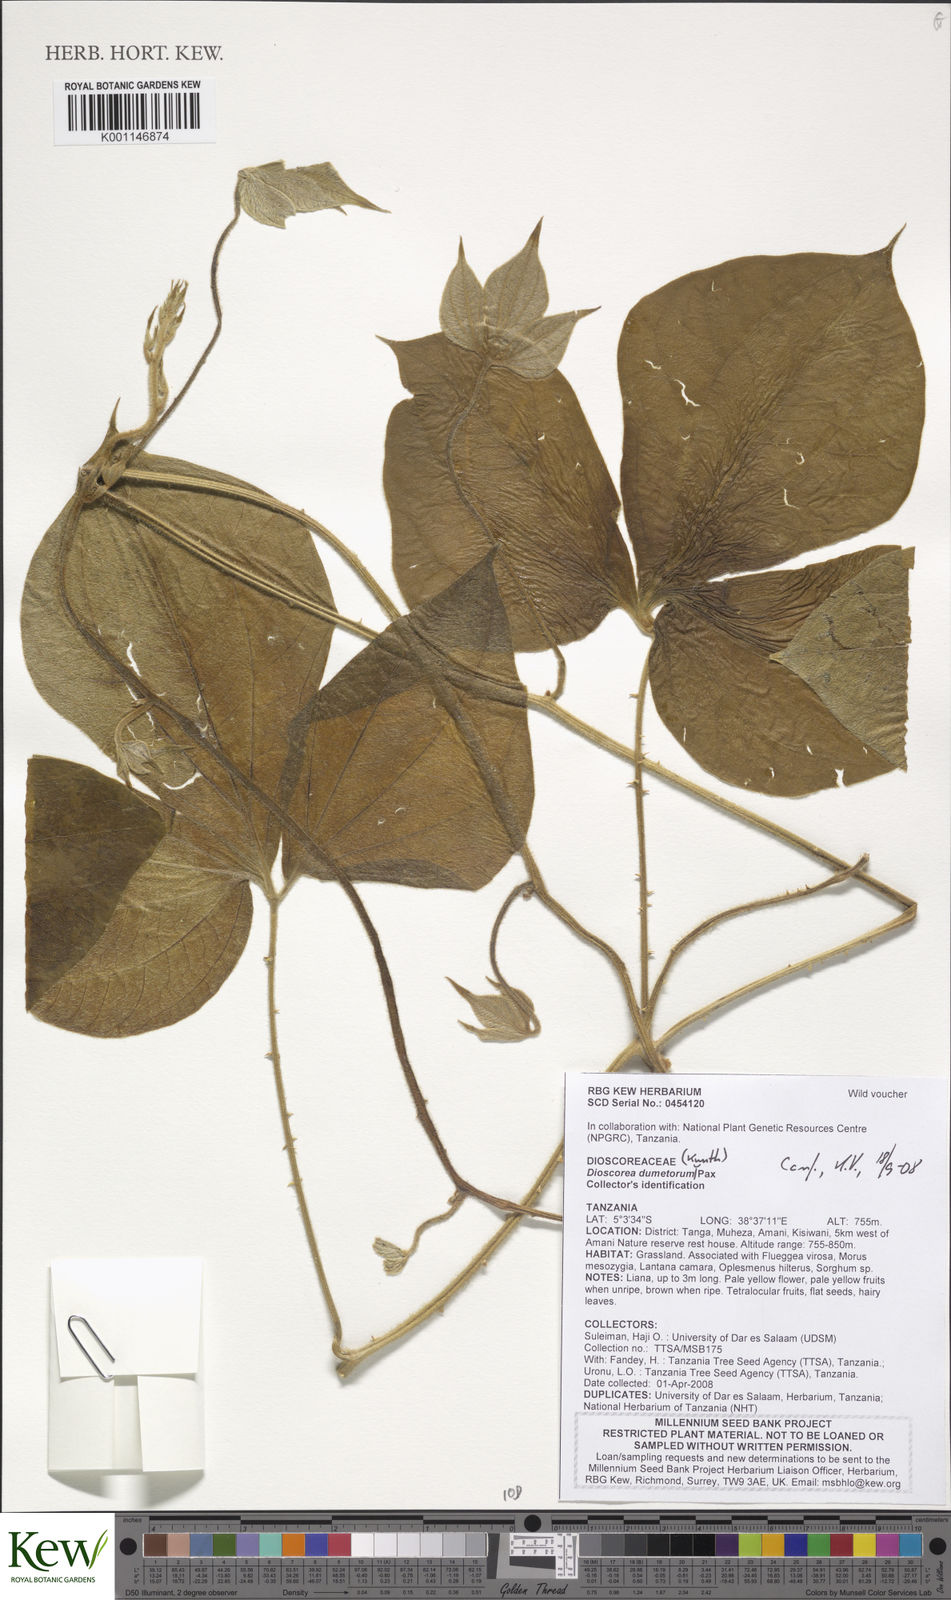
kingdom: Plantae
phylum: Tracheophyta
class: Liliopsida
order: Dioscoreales
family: Dioscoreaceae
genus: Dioscorea
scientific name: Dioscorea dumetorum
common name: African bitter yam
